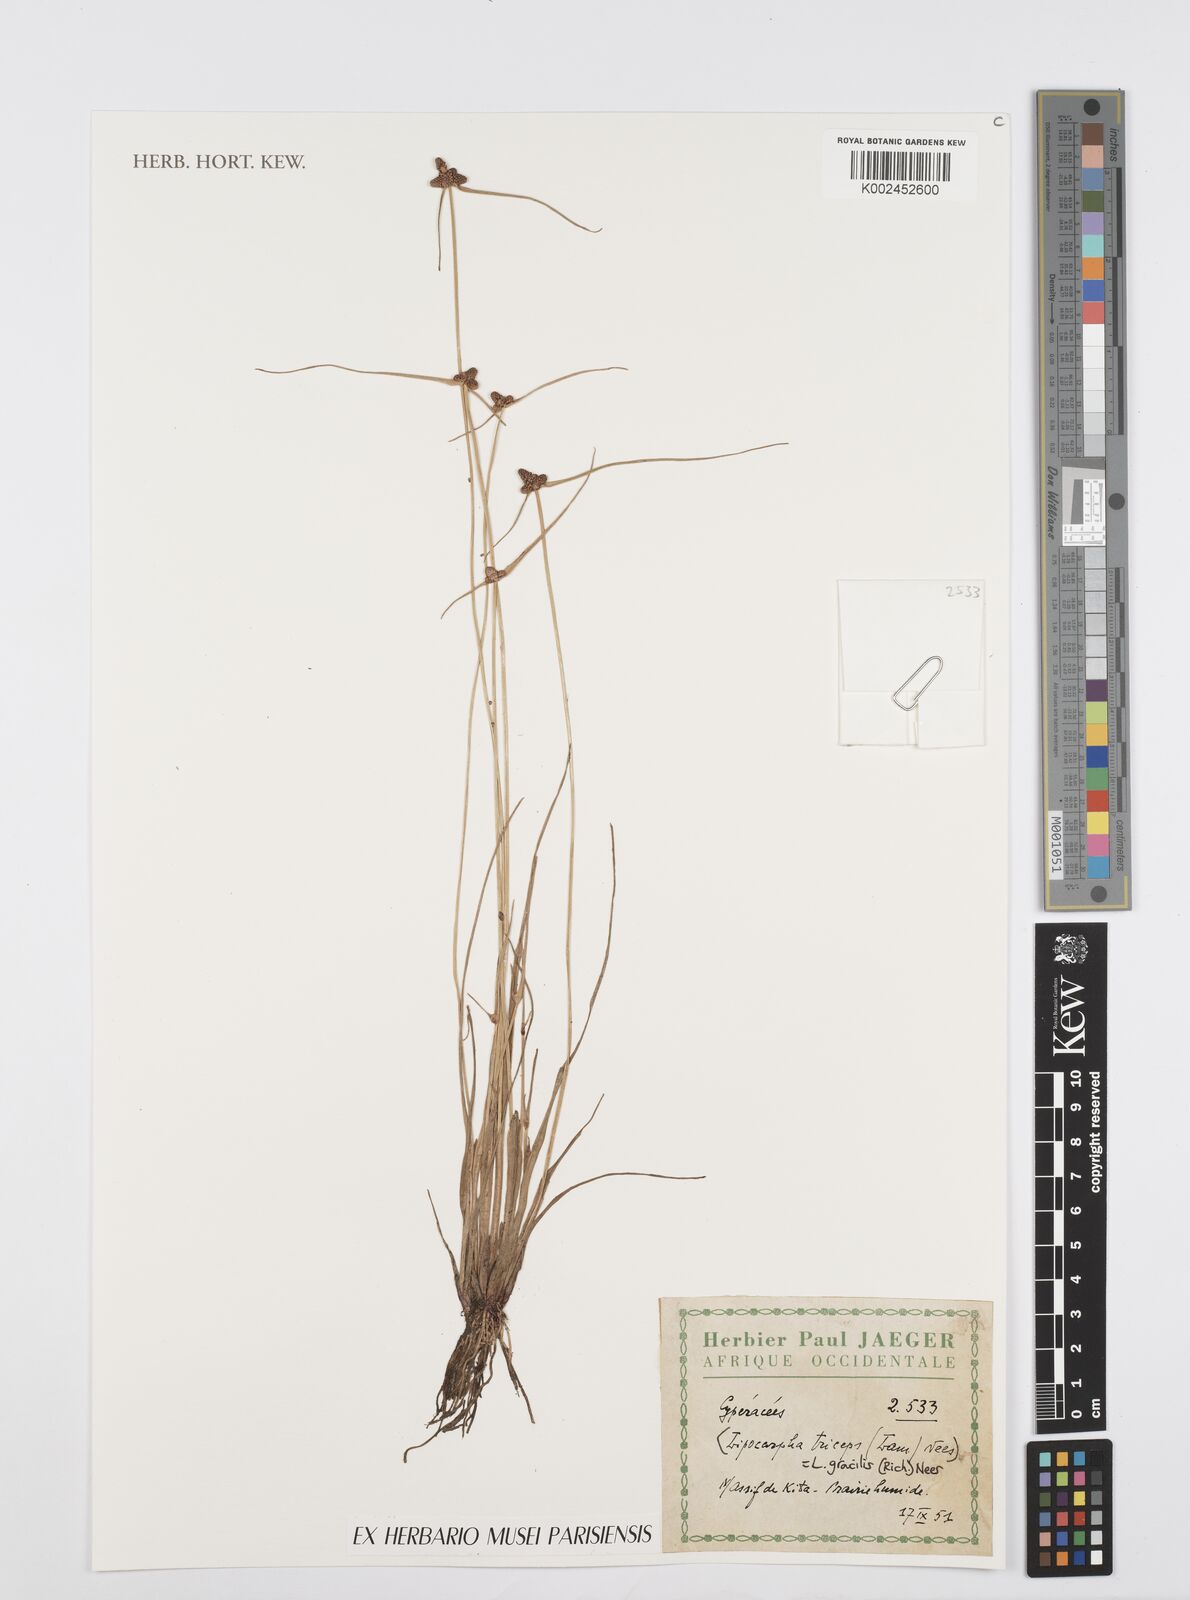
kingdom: Plantae
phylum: Tracheophyta
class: Liliopsida
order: Poales
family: Cyperaceae
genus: Cyperus
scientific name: Cyperus sphacelatus
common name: Roadside flatsedge
